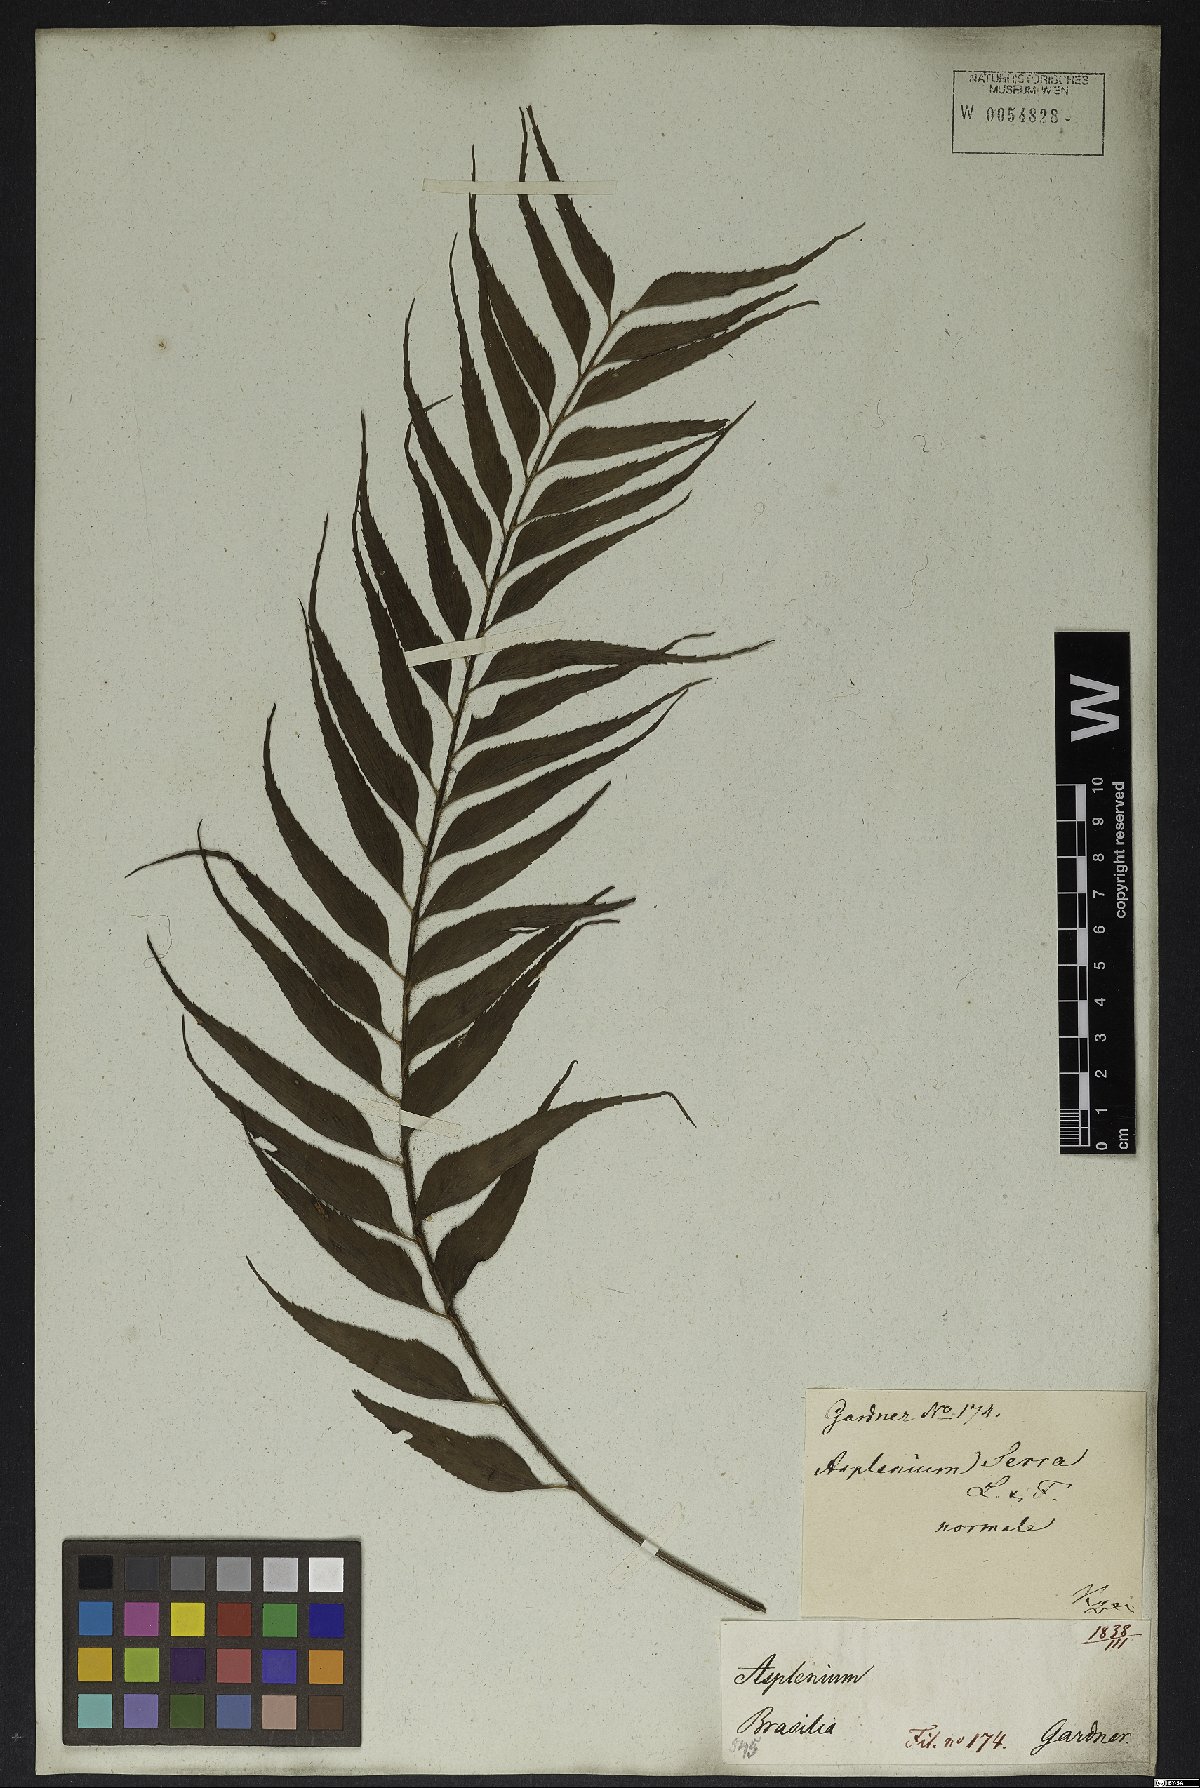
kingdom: Plantae
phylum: Tracheophyta
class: Polypodiopsida
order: Polypodiales
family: Aspleniaceae
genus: Asplenium
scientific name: Asplenium serra
